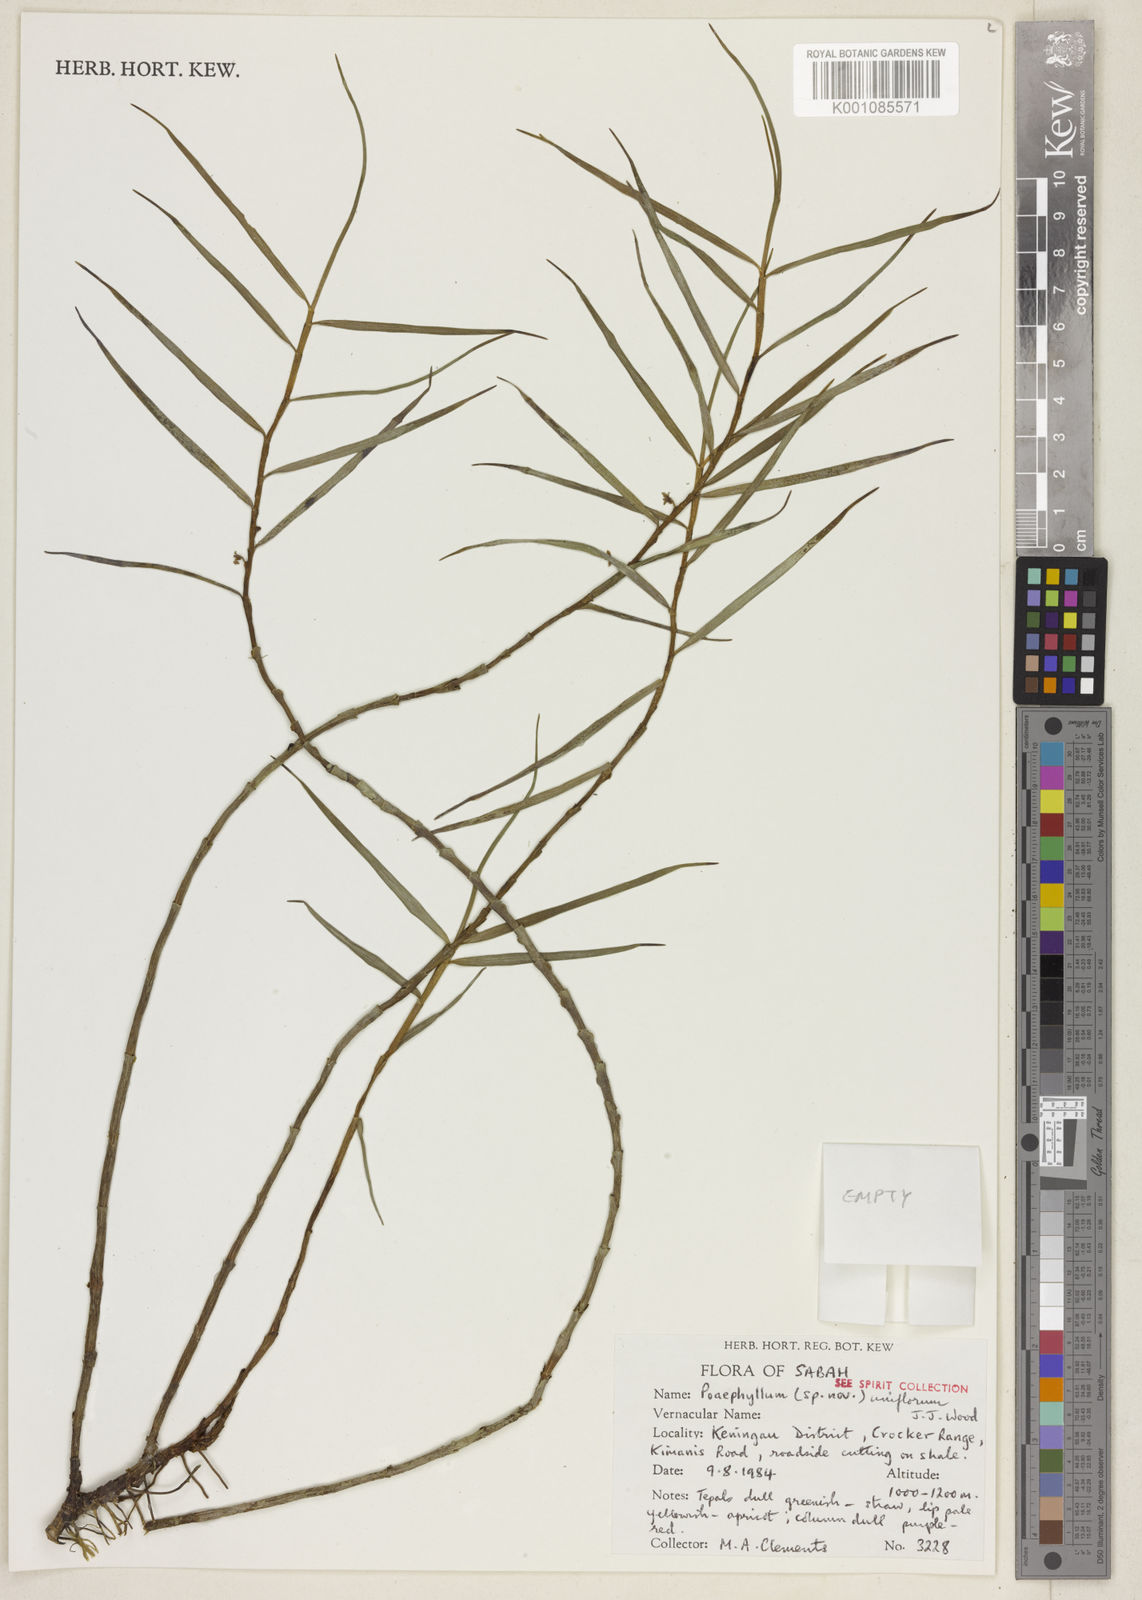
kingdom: Plantae
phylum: Tracheophyta
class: Liliopsida
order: Asparagales
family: Orchidaceae
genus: Cylindrolobus
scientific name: Cylindrolobus uniflorus
